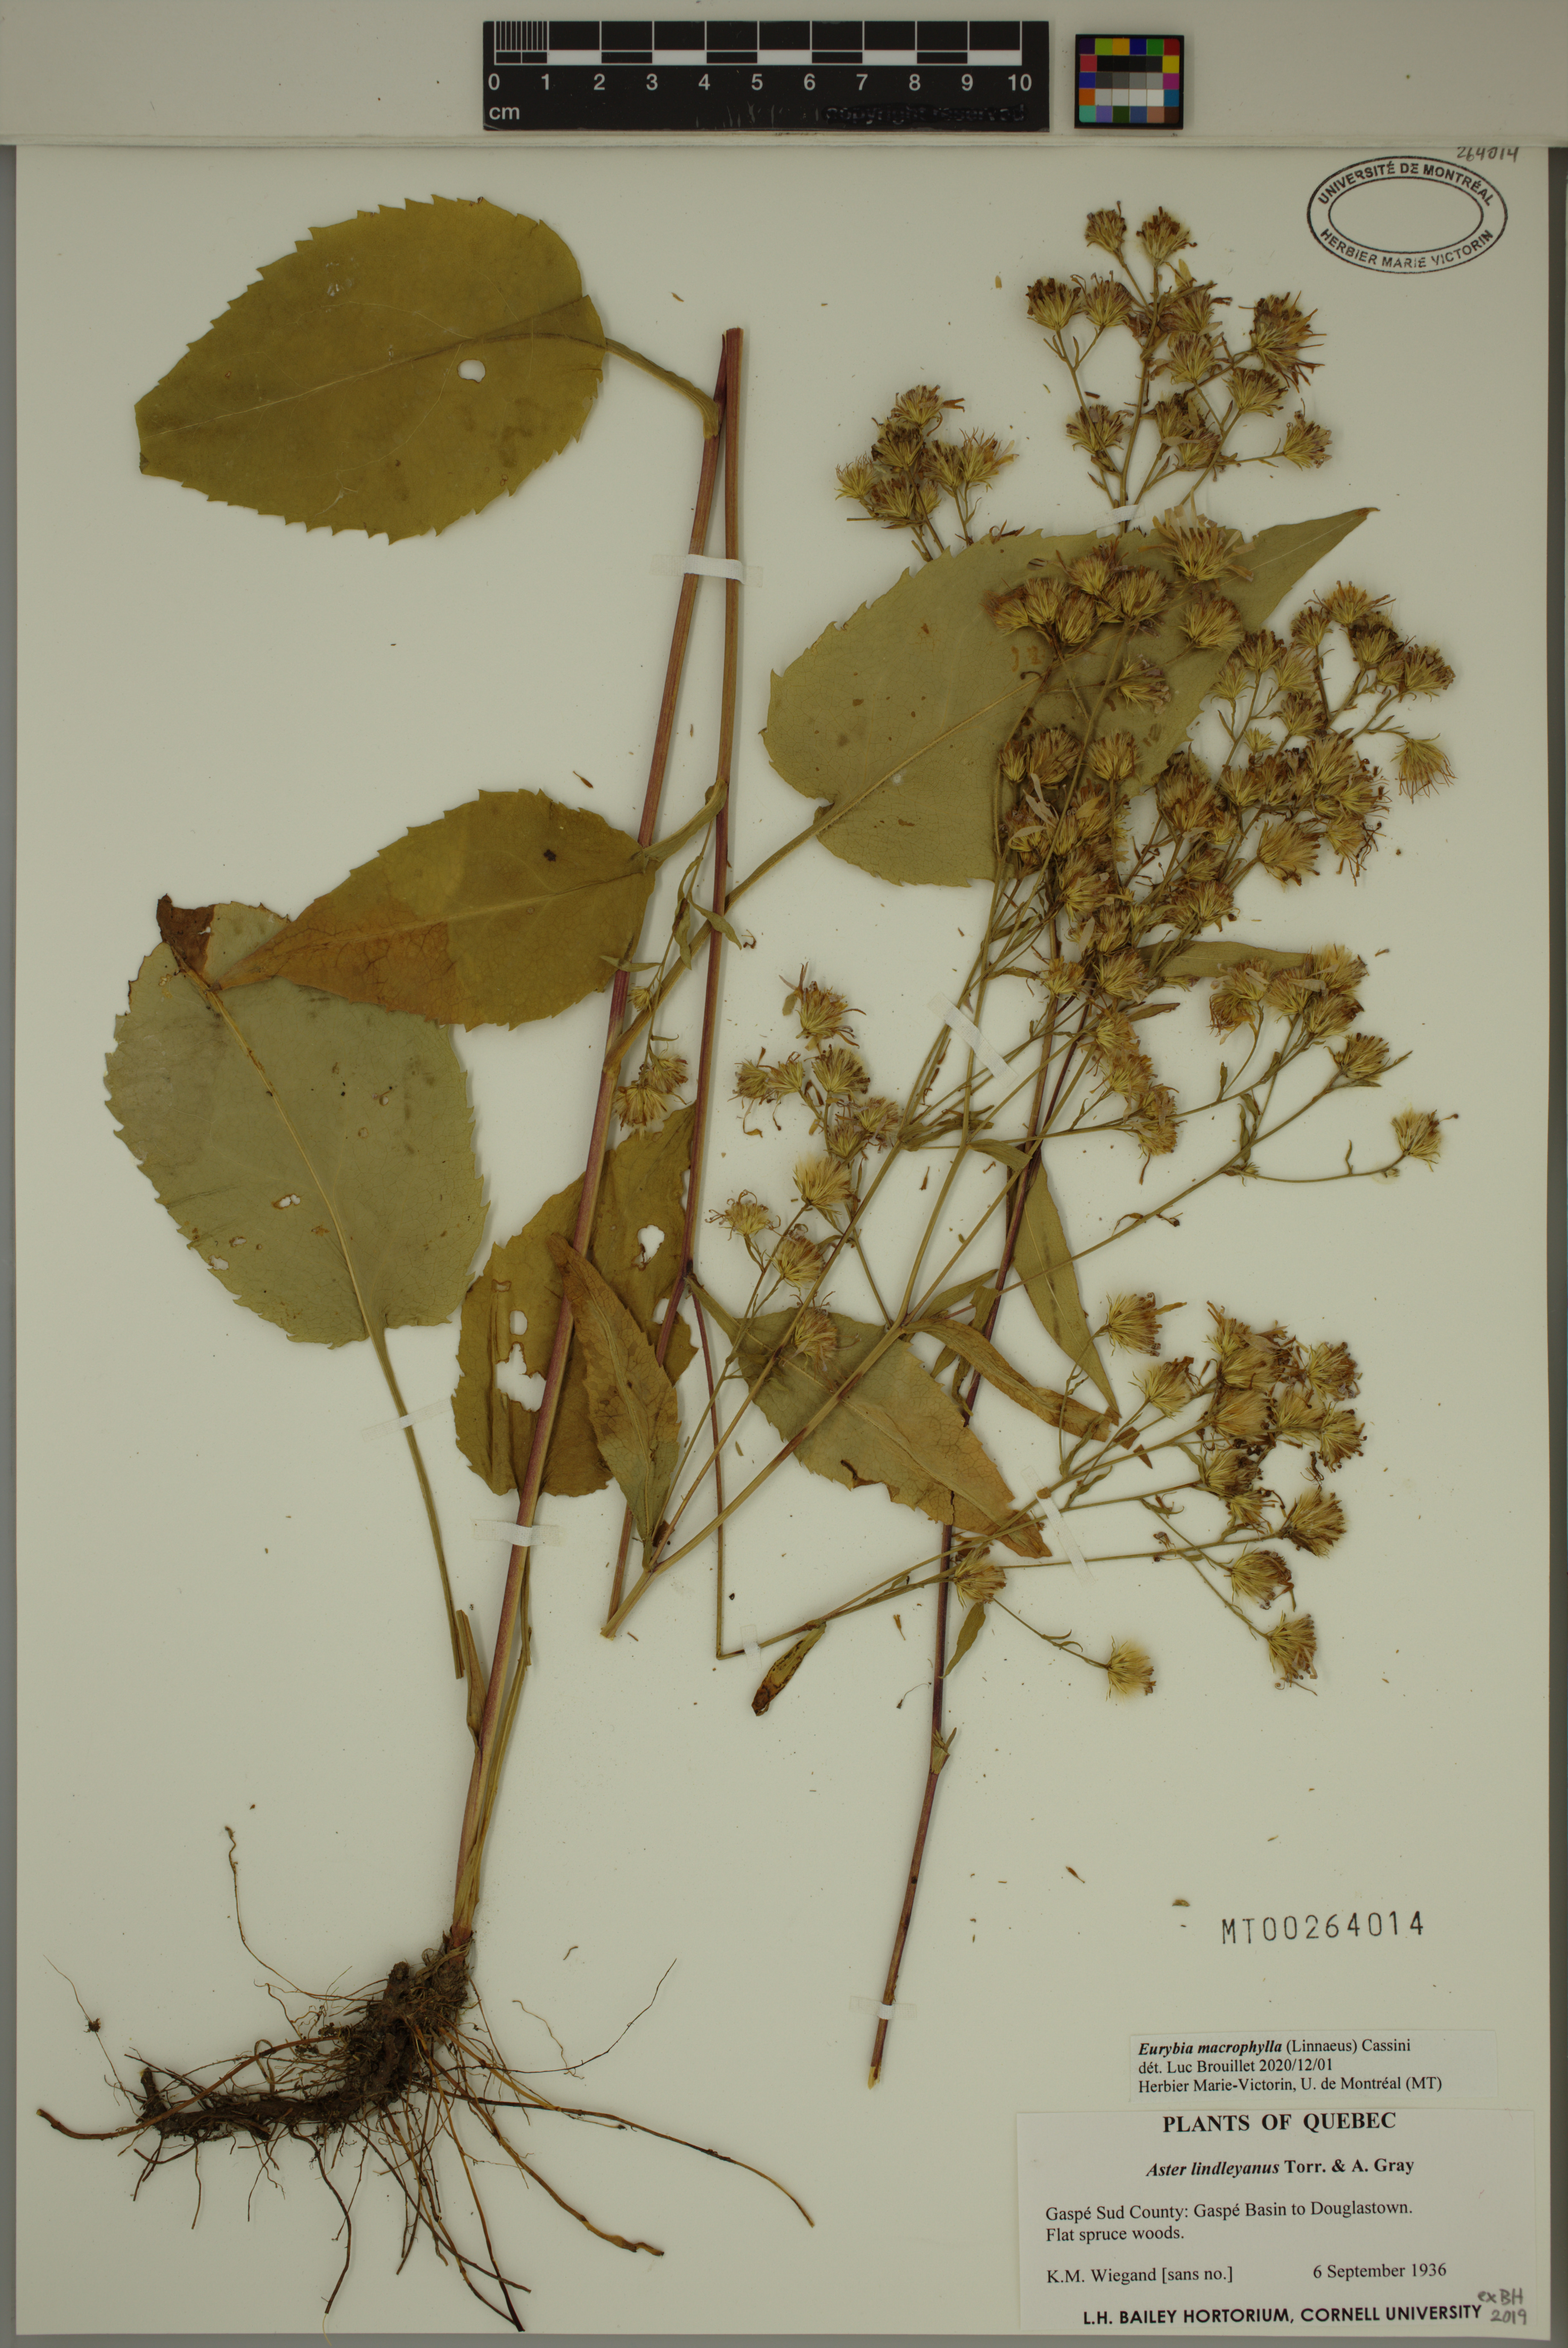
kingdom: Plantae
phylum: Tracheophyta
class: Magnoliopsida
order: Asterales
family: Asteraceae
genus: Eurybia
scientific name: Eurybia macrophylla
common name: Big-leaved aster
